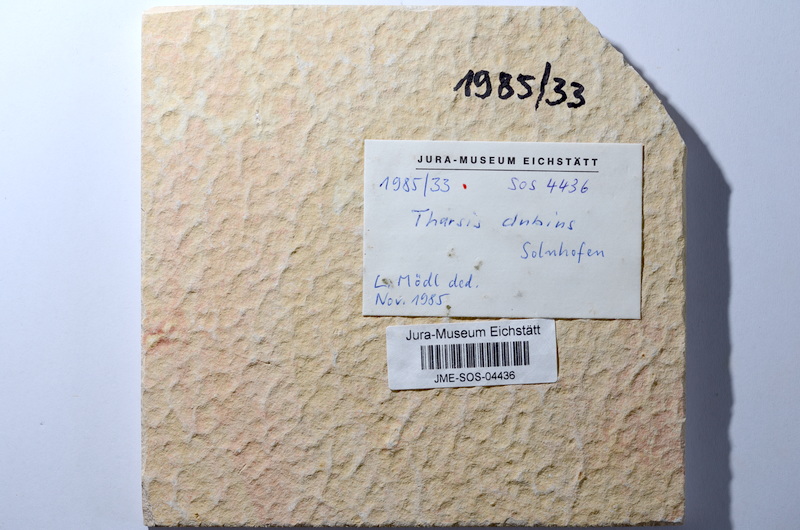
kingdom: Animalia
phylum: Chordata
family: Ascalaboidae
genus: Tharsis
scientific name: Tharsis dubius
